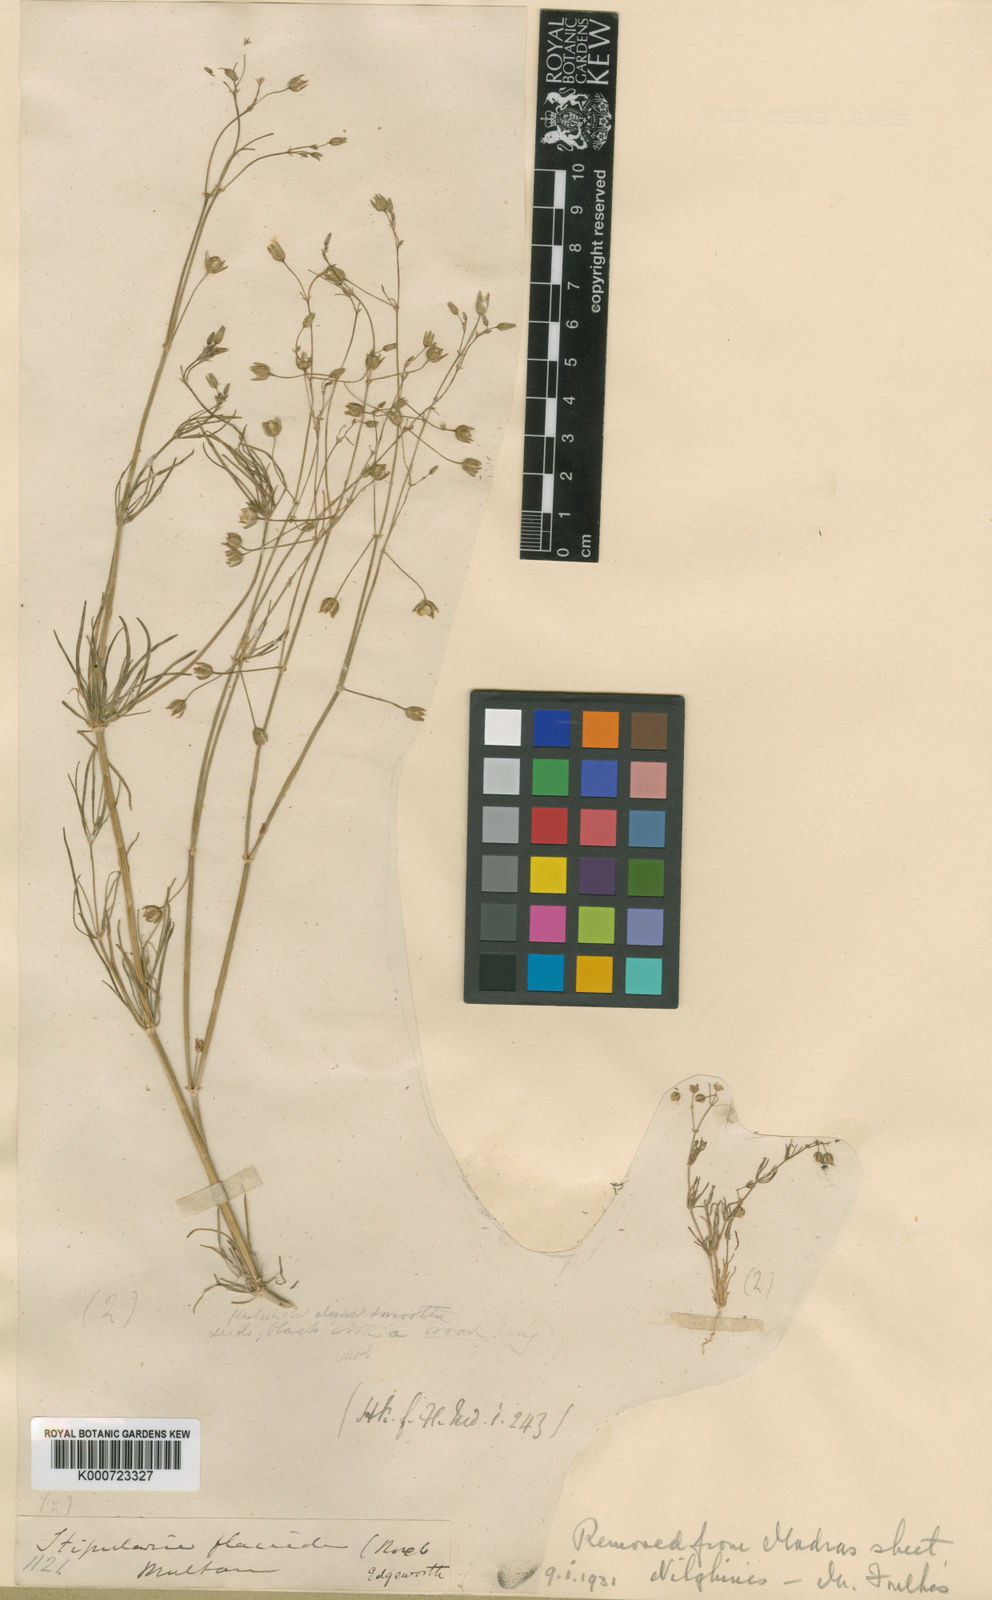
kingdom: Plantae
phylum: Tracheophyta
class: Magnoliopsida
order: Caryophyllales
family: Caryophyllaceae
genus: Spergularia
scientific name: Spergularia flaccida
